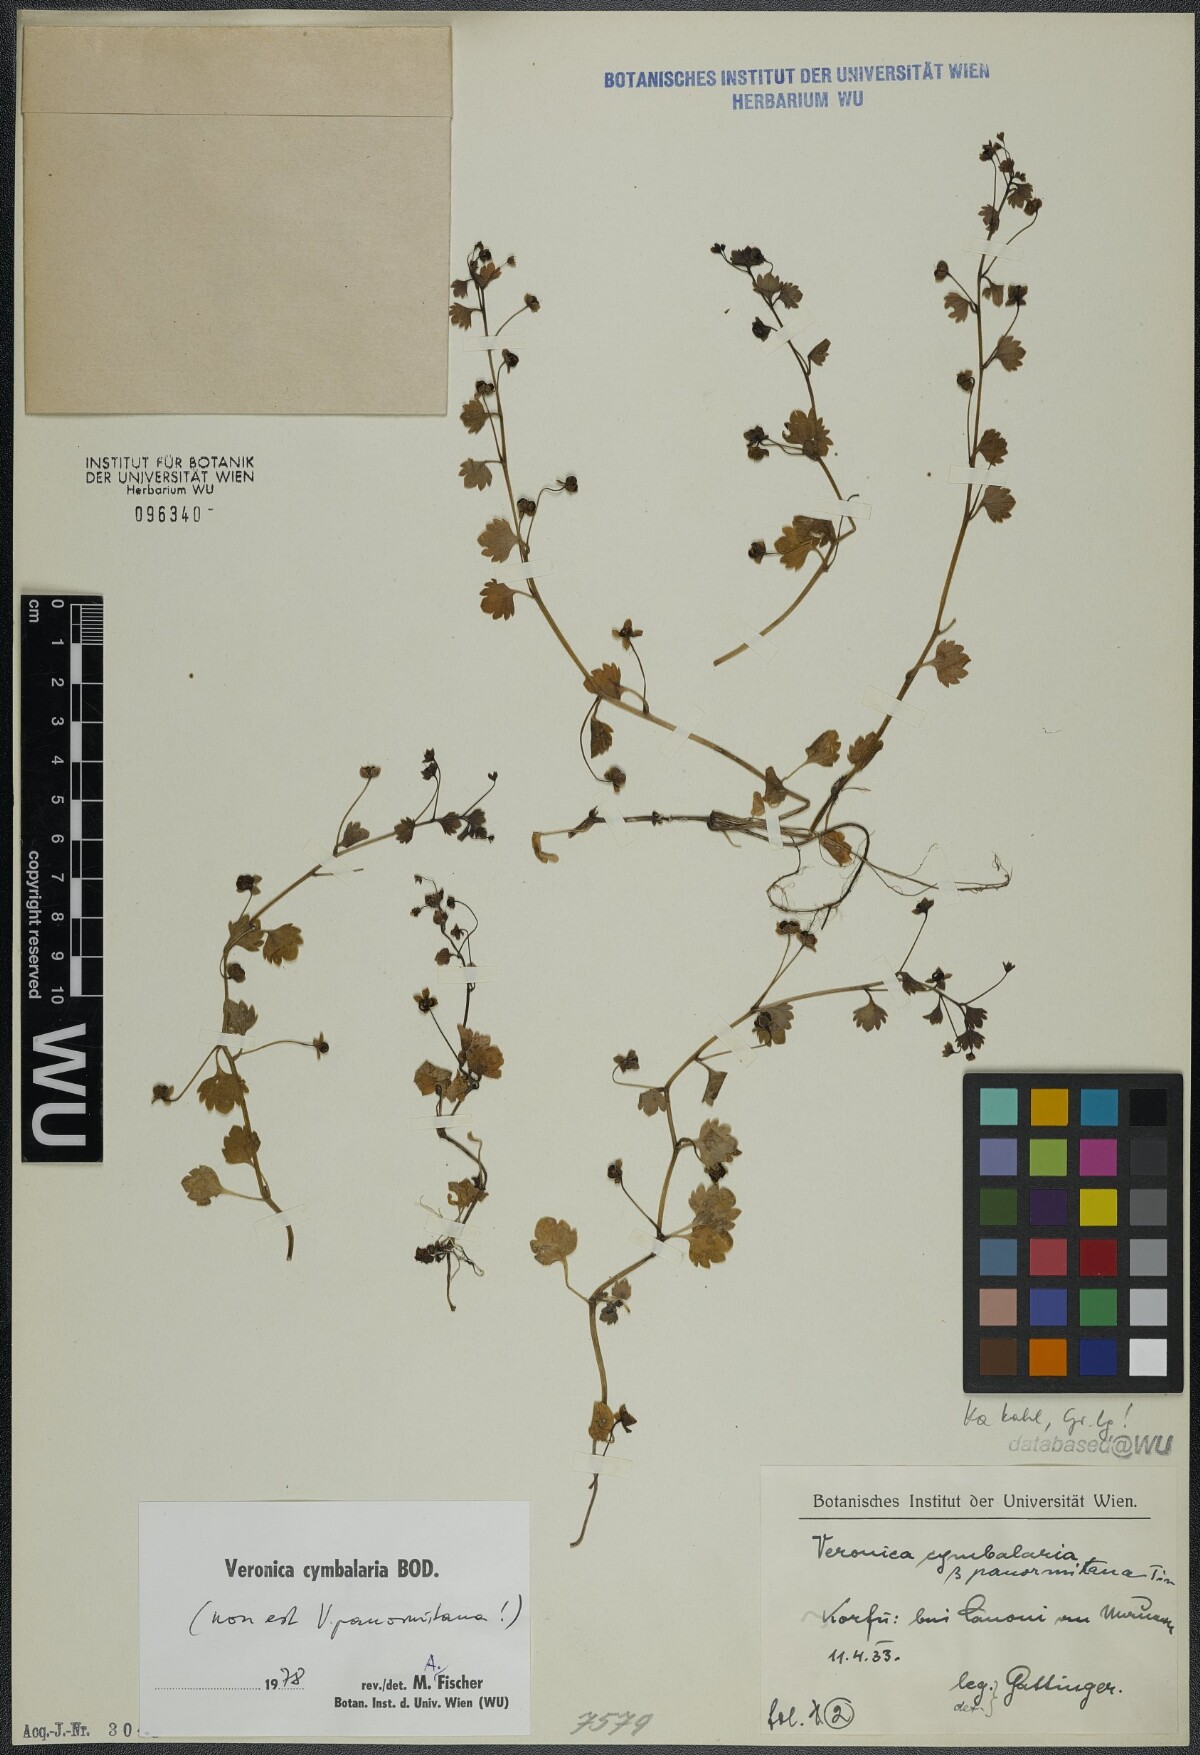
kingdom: Plantae
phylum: Tracheophyta
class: Magnoliopsida
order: Lamiales
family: Plantaginaceae
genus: Veronica
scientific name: Veronica cymbalaria
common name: Pale speedwell
